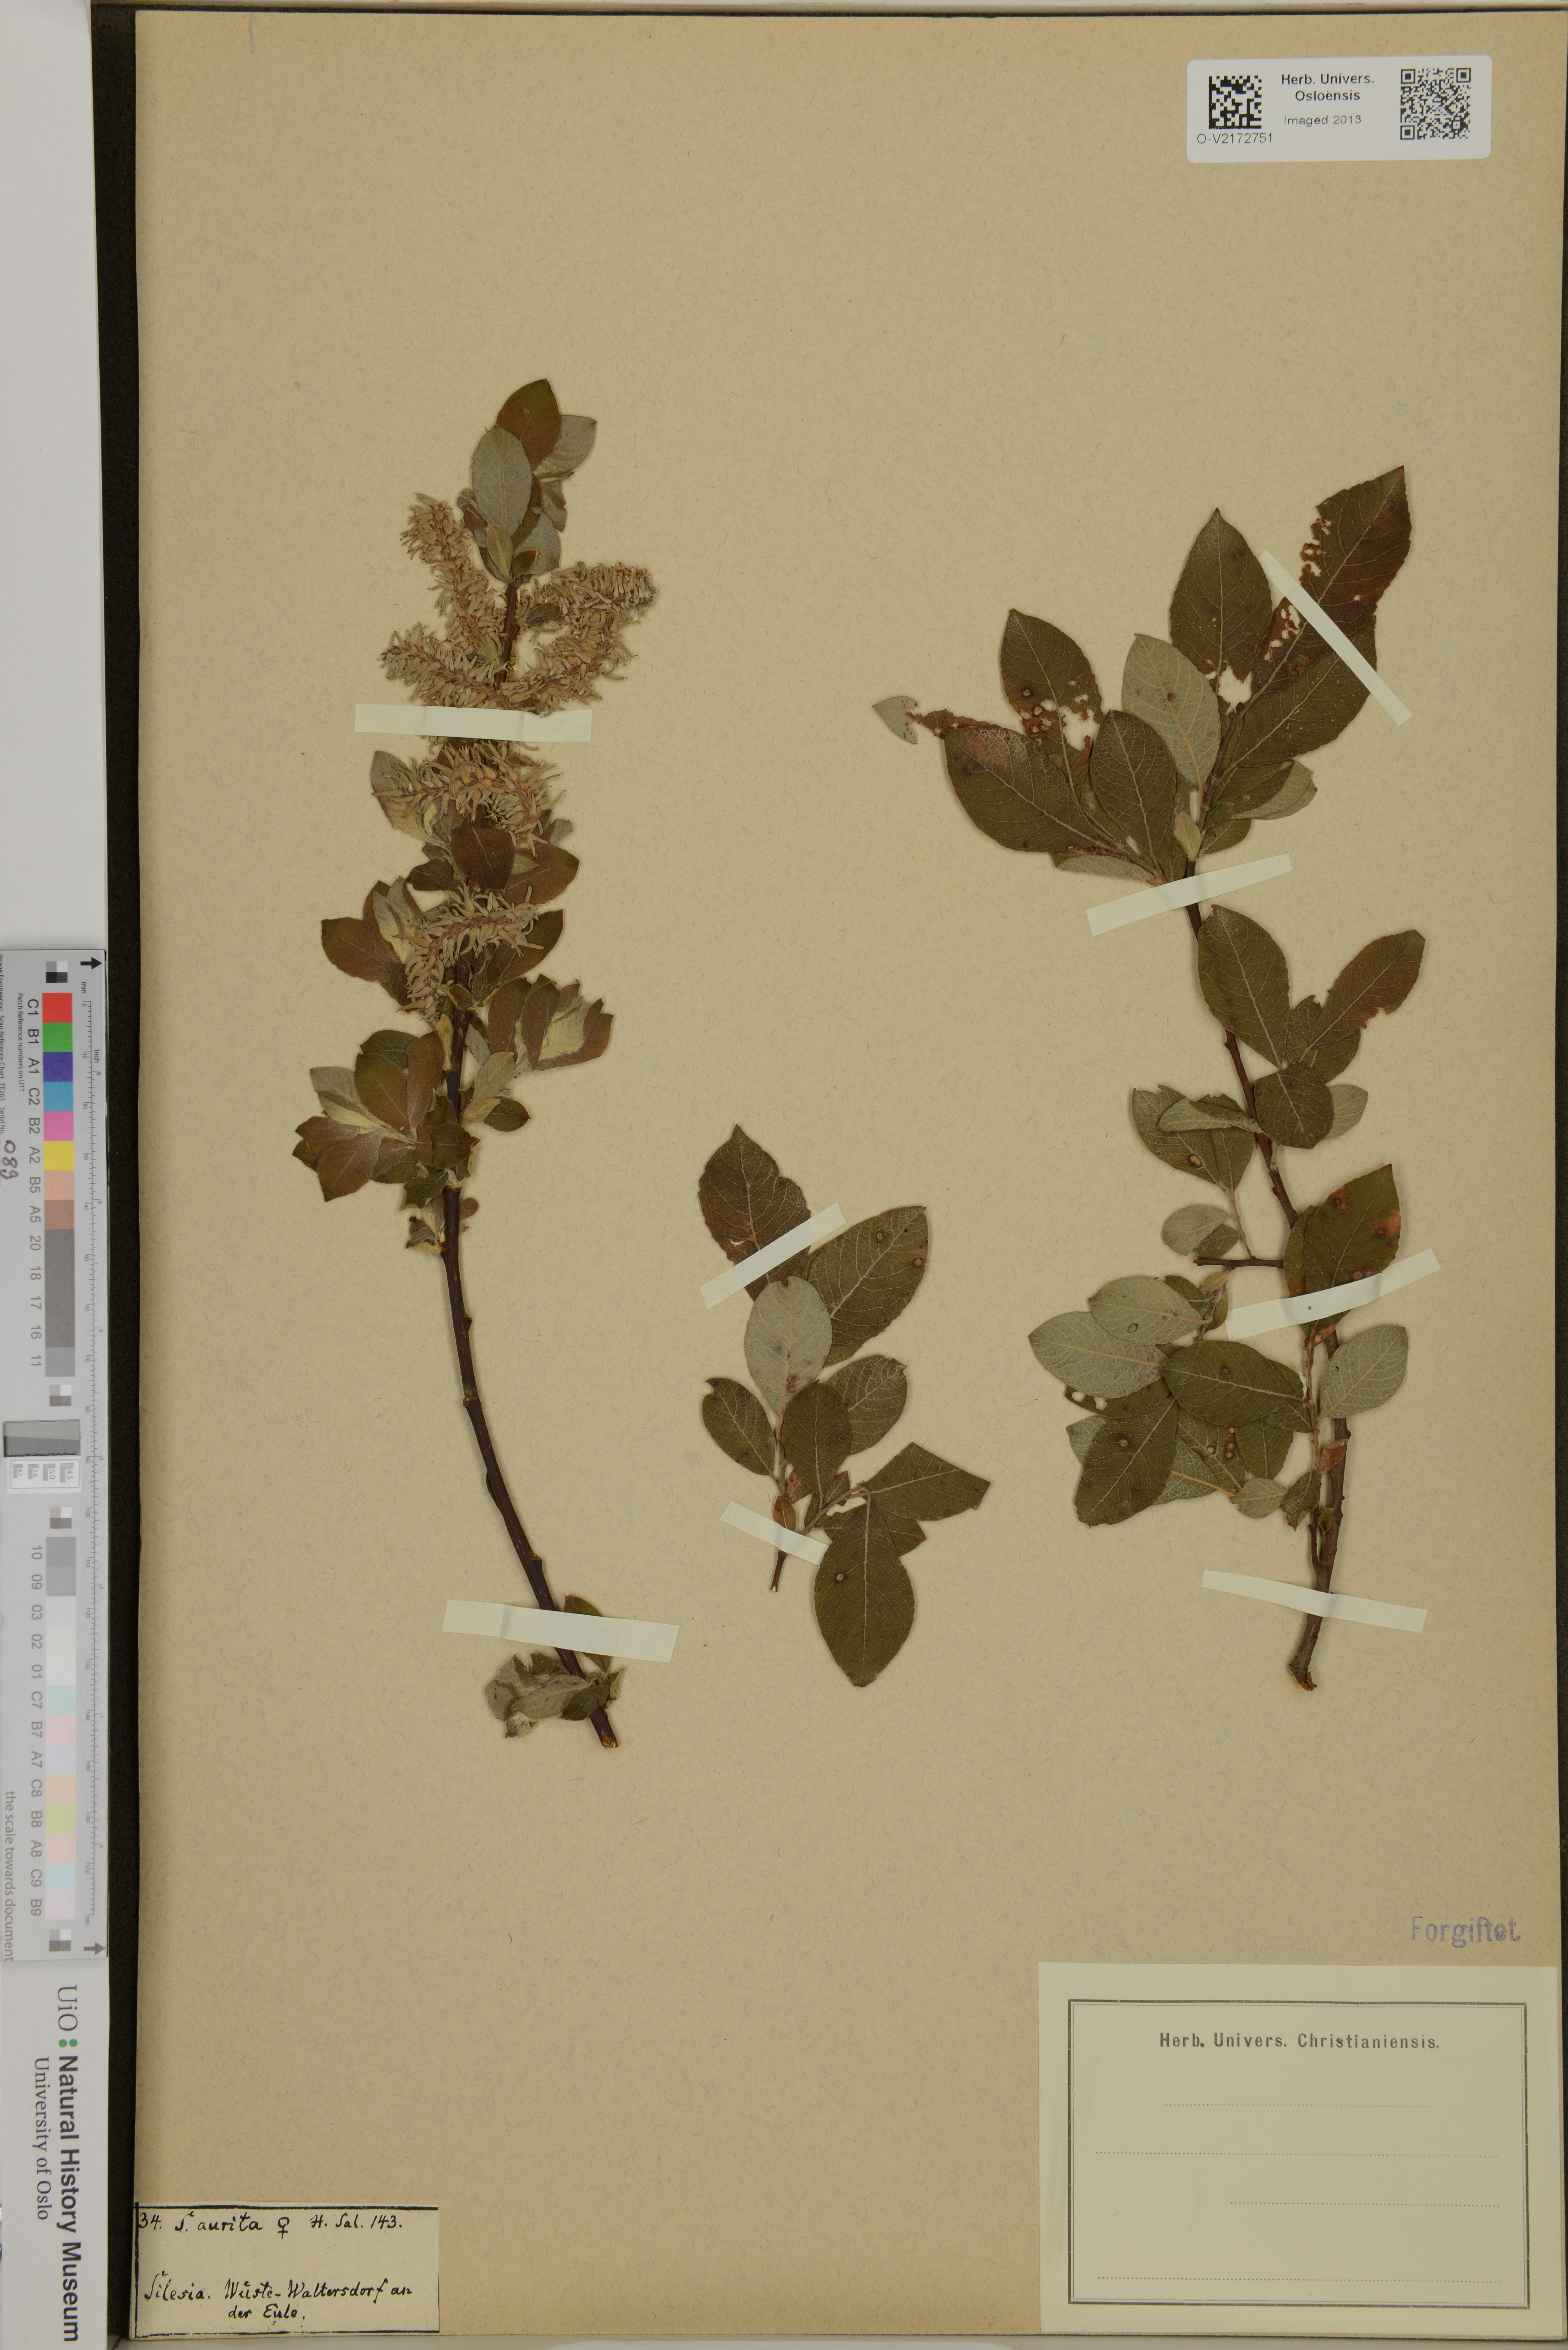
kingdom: Plantae
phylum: Tracheophyta
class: Magnoliopsida
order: Malpighiales
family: Salicaceae
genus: Salix
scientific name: Salix aurita
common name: Eared willow
